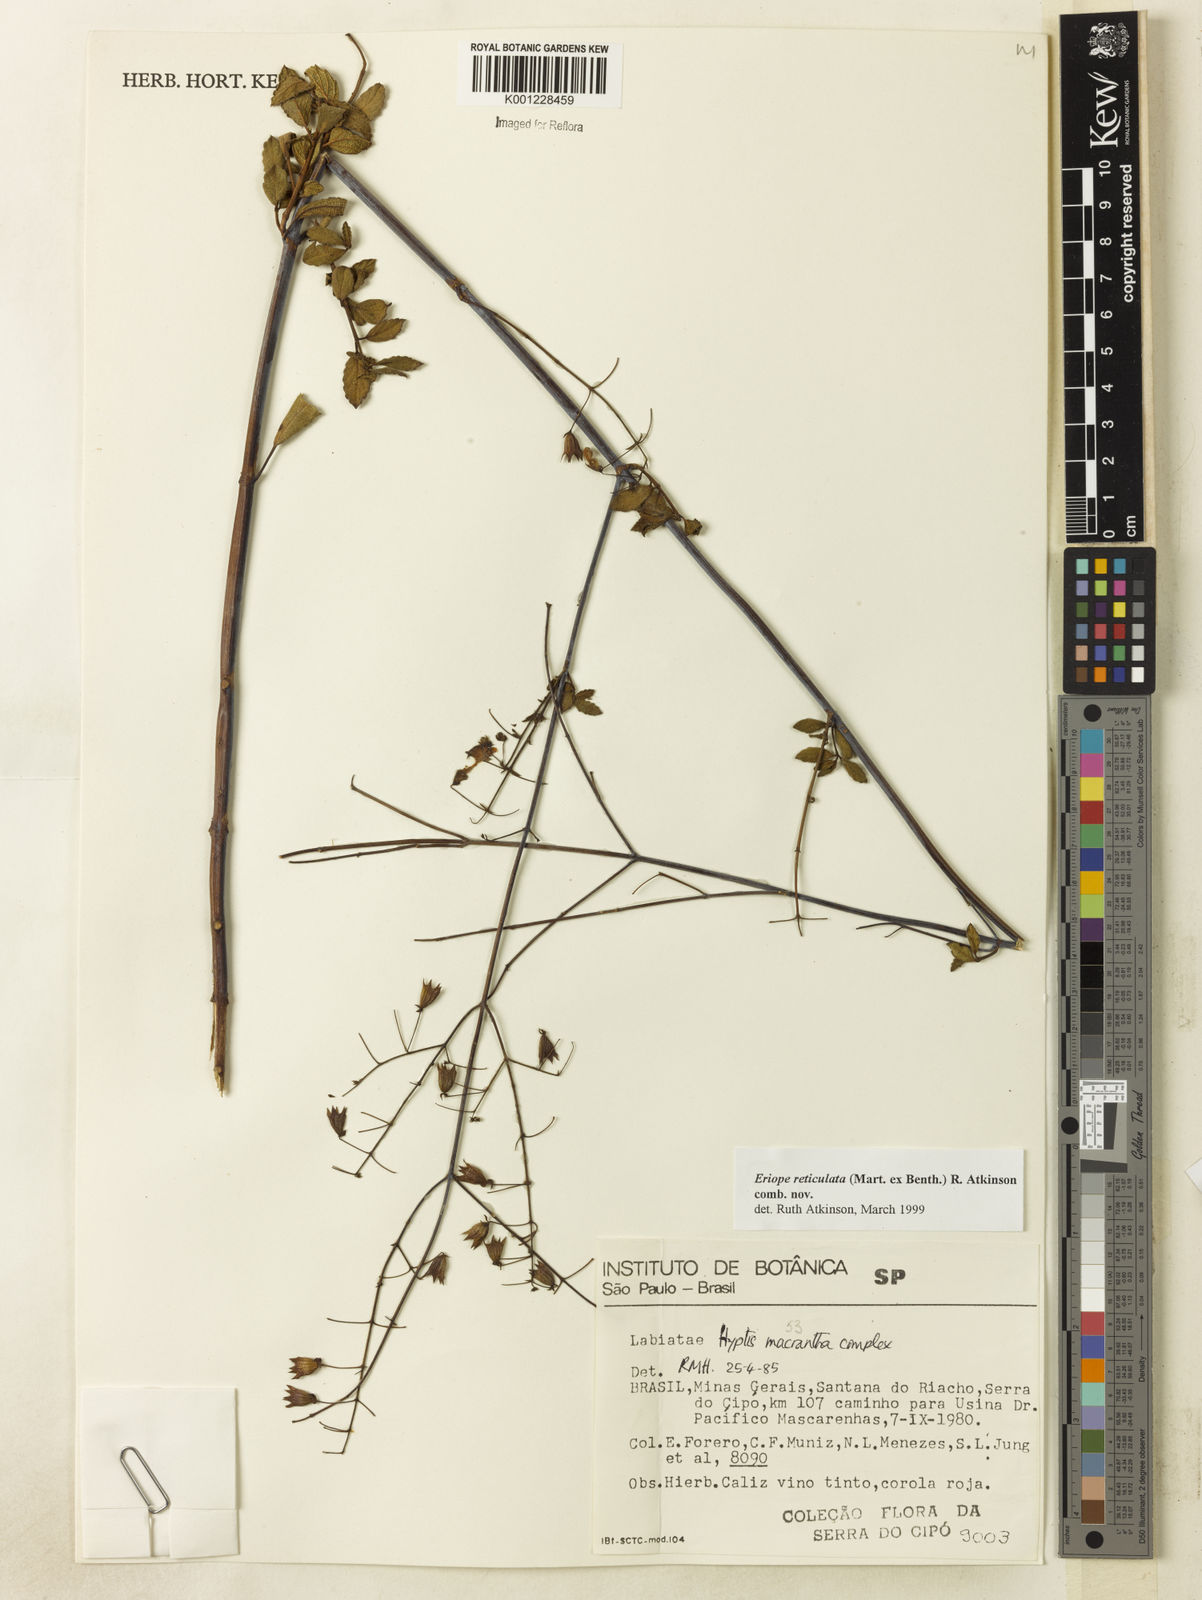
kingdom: Plantae
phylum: Tracheophyta
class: Magnoliopsida
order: Lamiales
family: Lamiaceae
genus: Hypenia
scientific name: Hypenia reticulata
